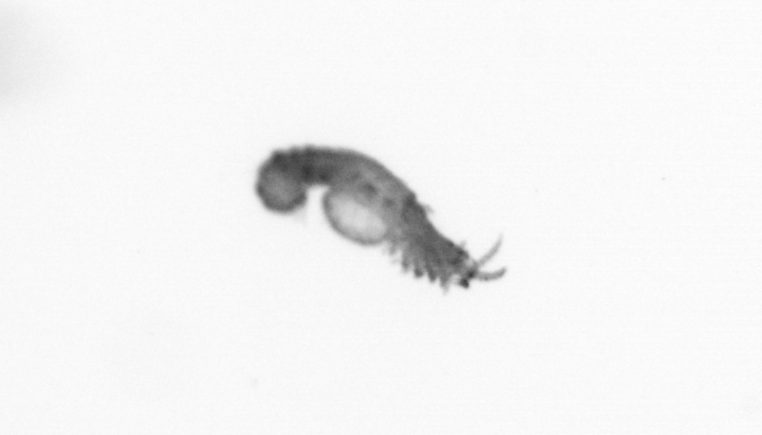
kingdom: Animalia
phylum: Annelida
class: Polychaeta
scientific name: Polychaeta
